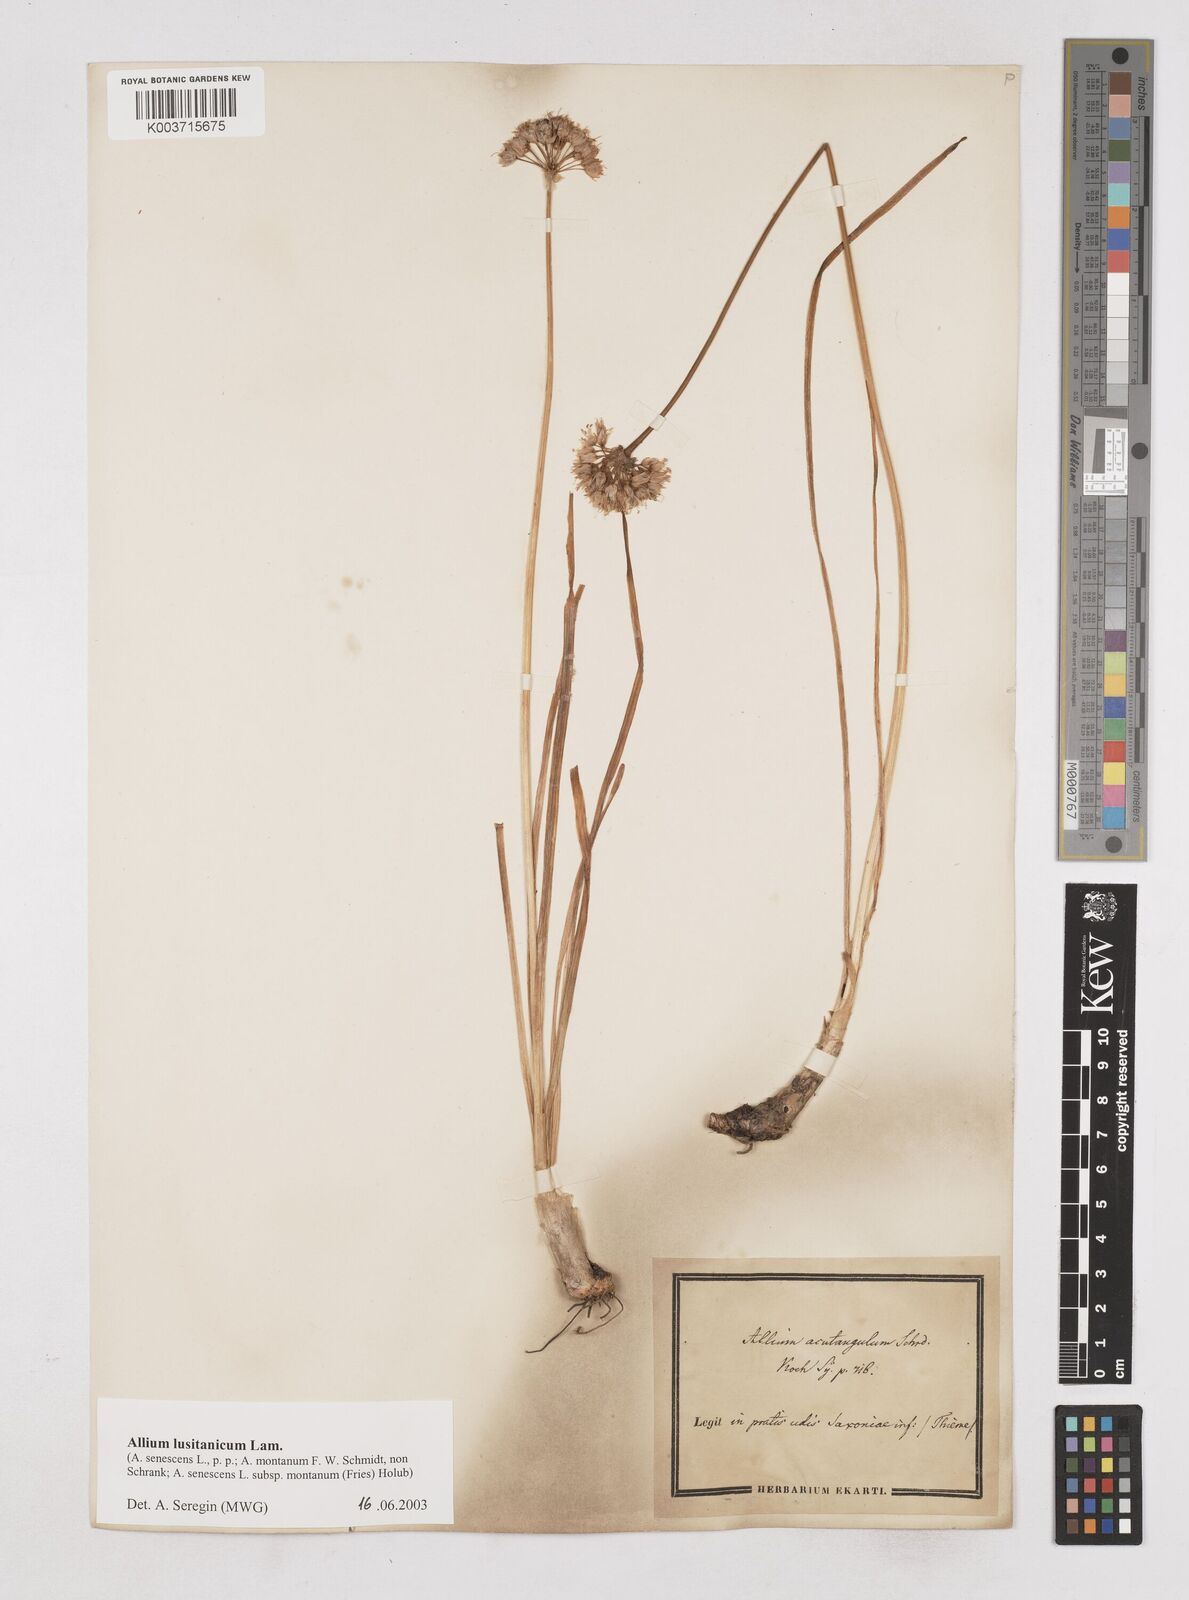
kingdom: Plantae
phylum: Tracheophyta
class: Liliopsida
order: Asparagales
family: Amaryllidaceae
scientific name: Amaryllidaceae
